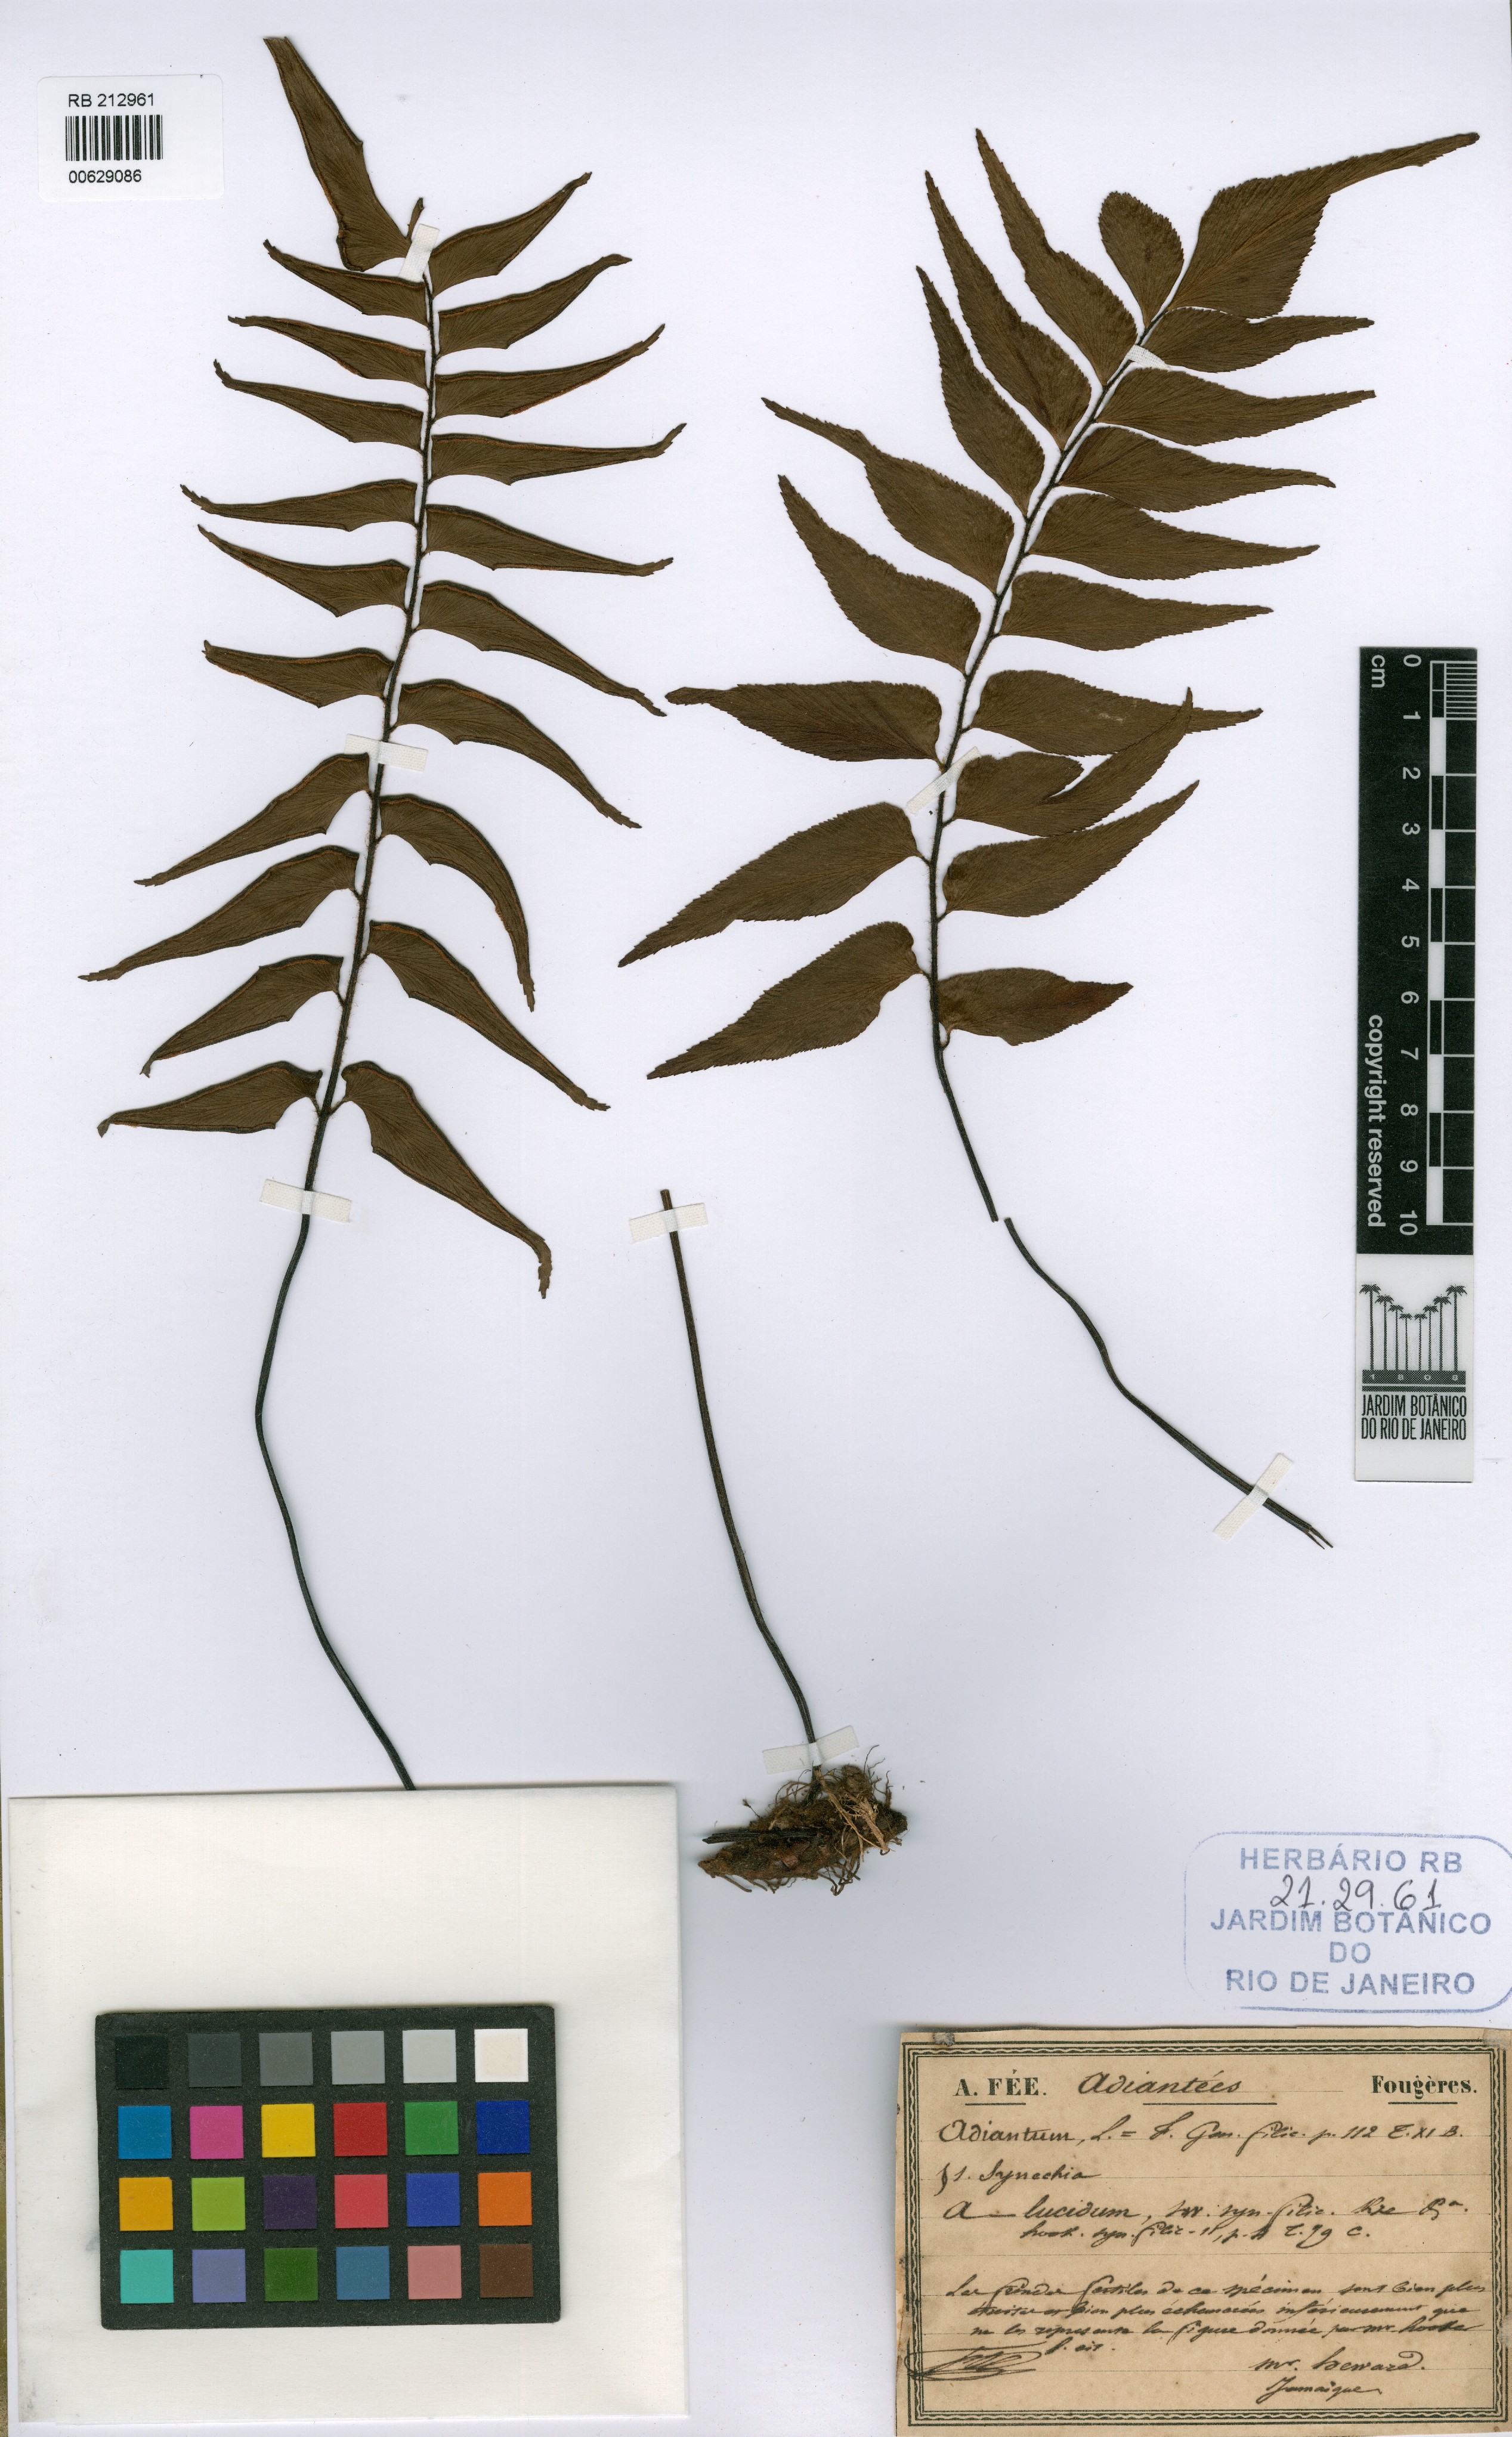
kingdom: Plantae
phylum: Tracheophyta
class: Polypodiopsida
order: Polypodiales
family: Pteridaceae
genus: Adiantum
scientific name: Adiantum lucidum
